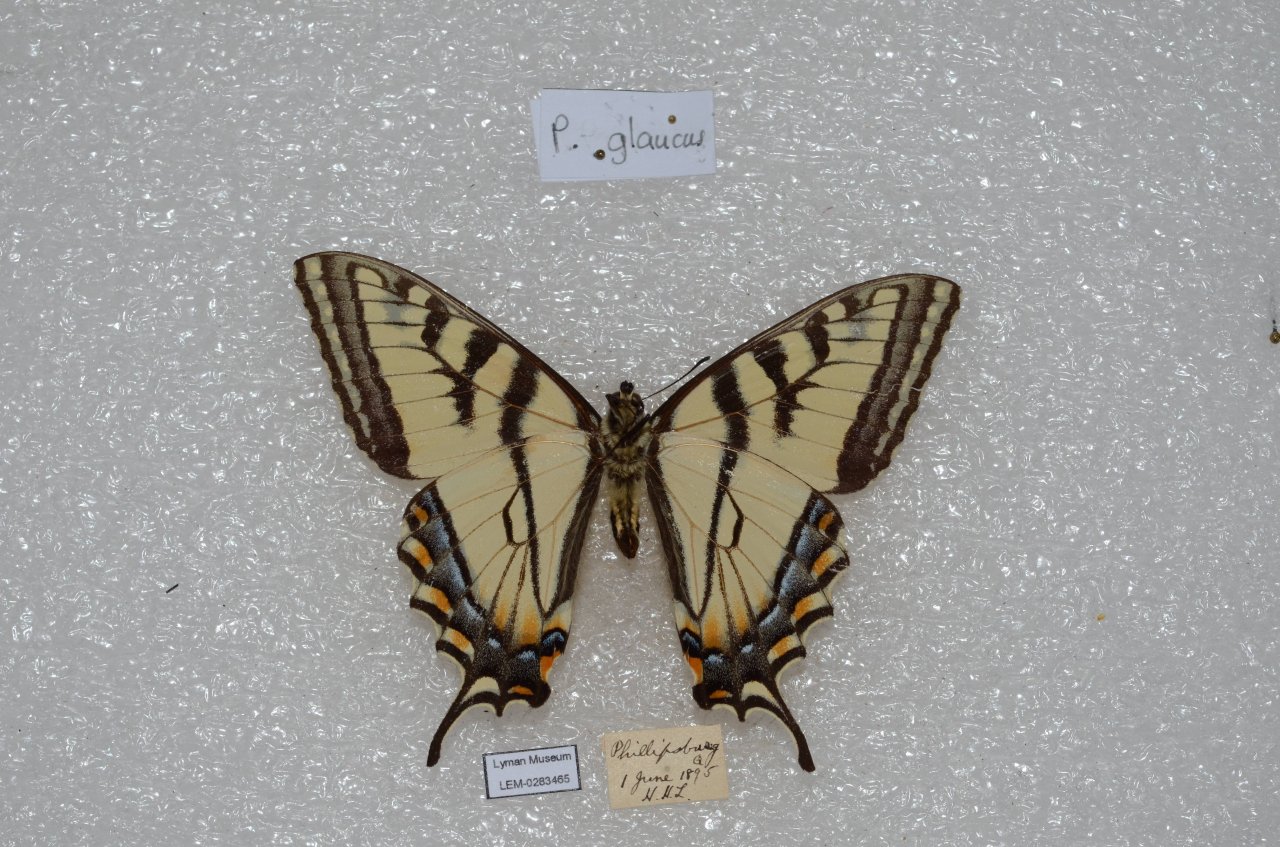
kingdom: Animalia
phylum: Arthropoda
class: Insecta
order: Lepidoptera
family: Papilionidae
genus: Pterourus
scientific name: Pterourus canadensis
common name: Canadian Tiger Swallowtail
